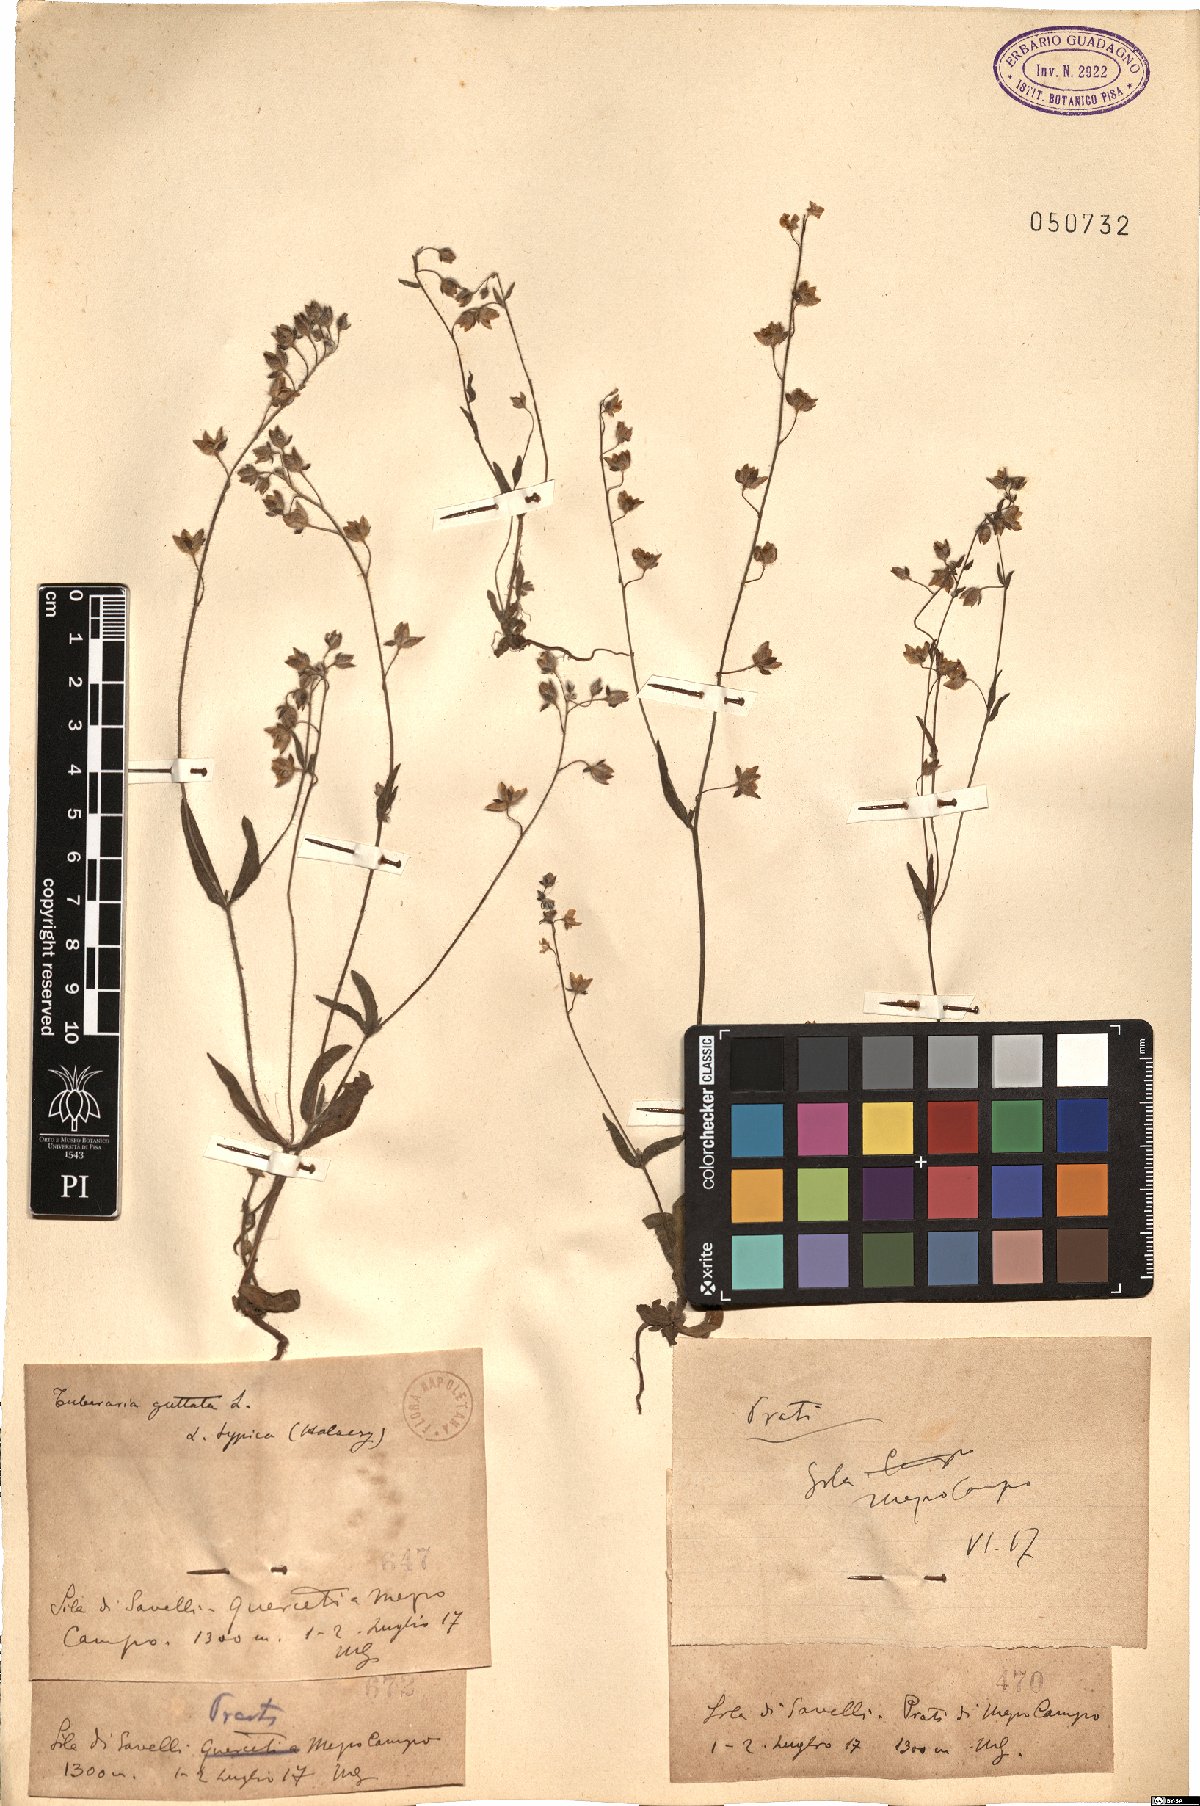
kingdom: Plantae
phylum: Tracheophyta
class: Magnoliopsida
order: Malvales
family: Cistaceae
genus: Tuberaria
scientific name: Tuberaria guttata
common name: Spotted rock-rose
